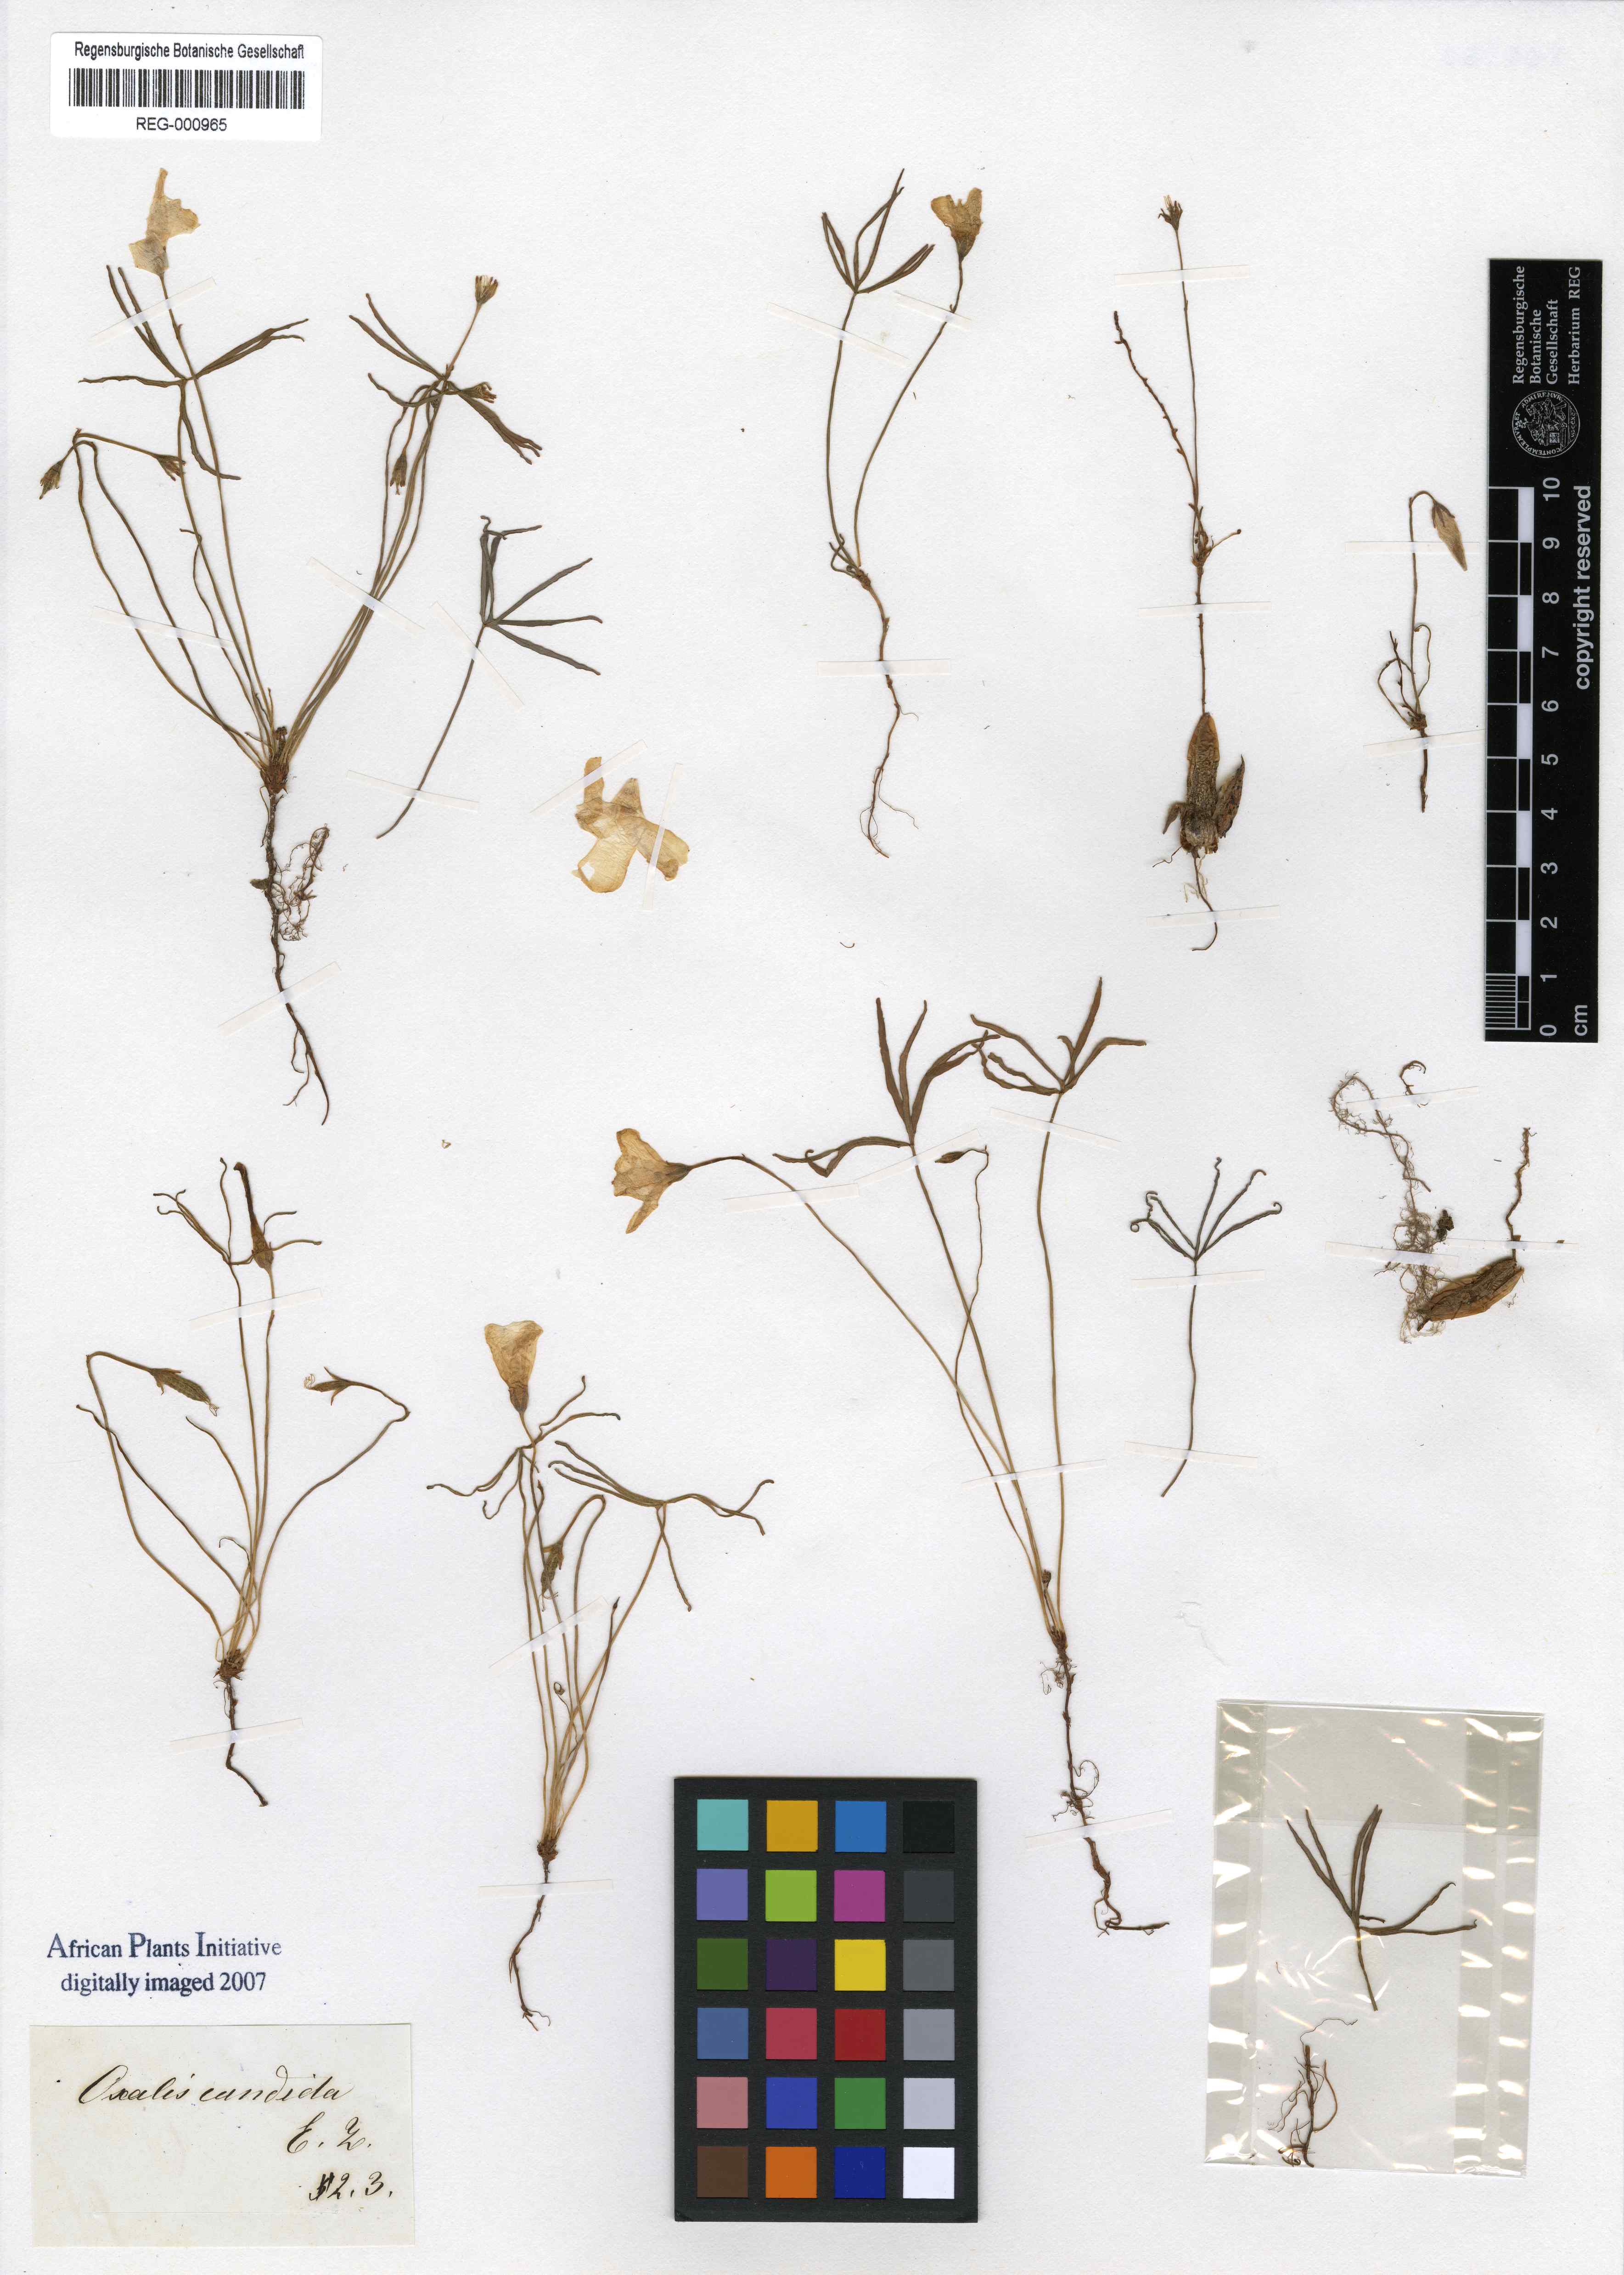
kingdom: Plantae
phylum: Tracheophyta
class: Magnoliopsida
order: Oxalidales
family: Oxalidaceae
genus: Oxalis
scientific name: Oxalis smithiana
